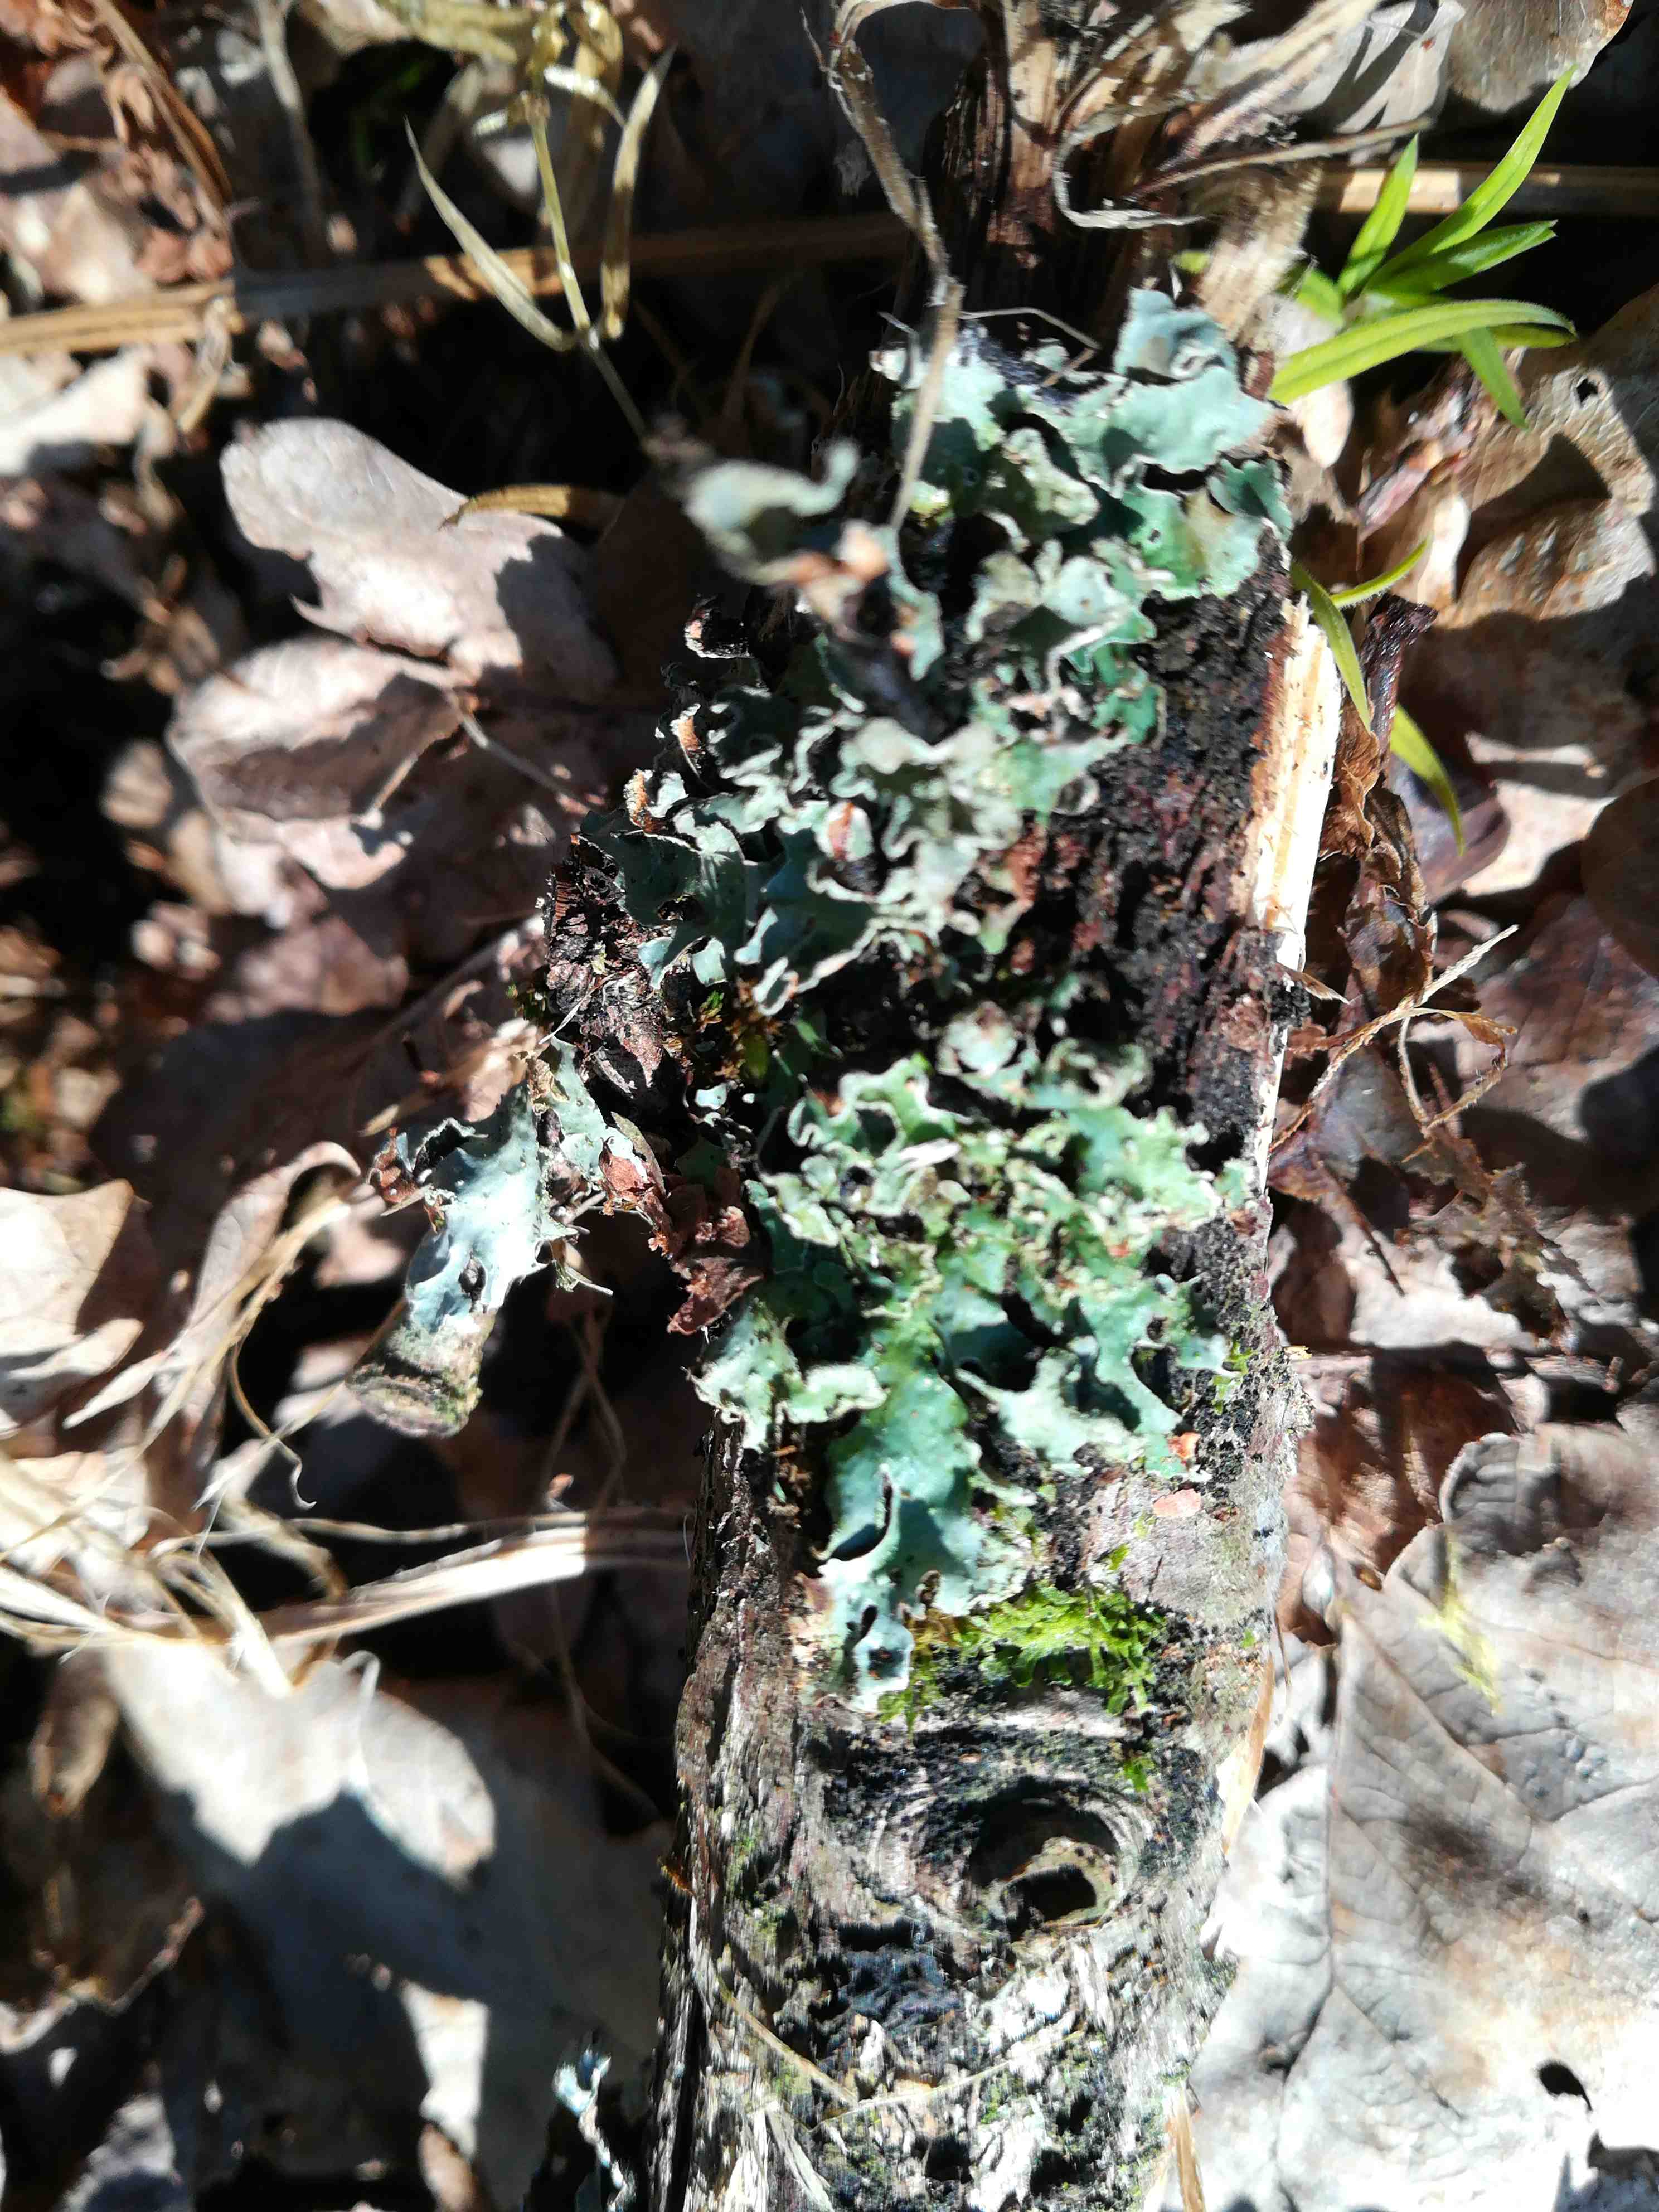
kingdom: Fungi
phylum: Ascomycota
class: Lecanoromycetes
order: Lecanorales
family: Parmeliaceae
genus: Parmelia
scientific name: Parmelia
